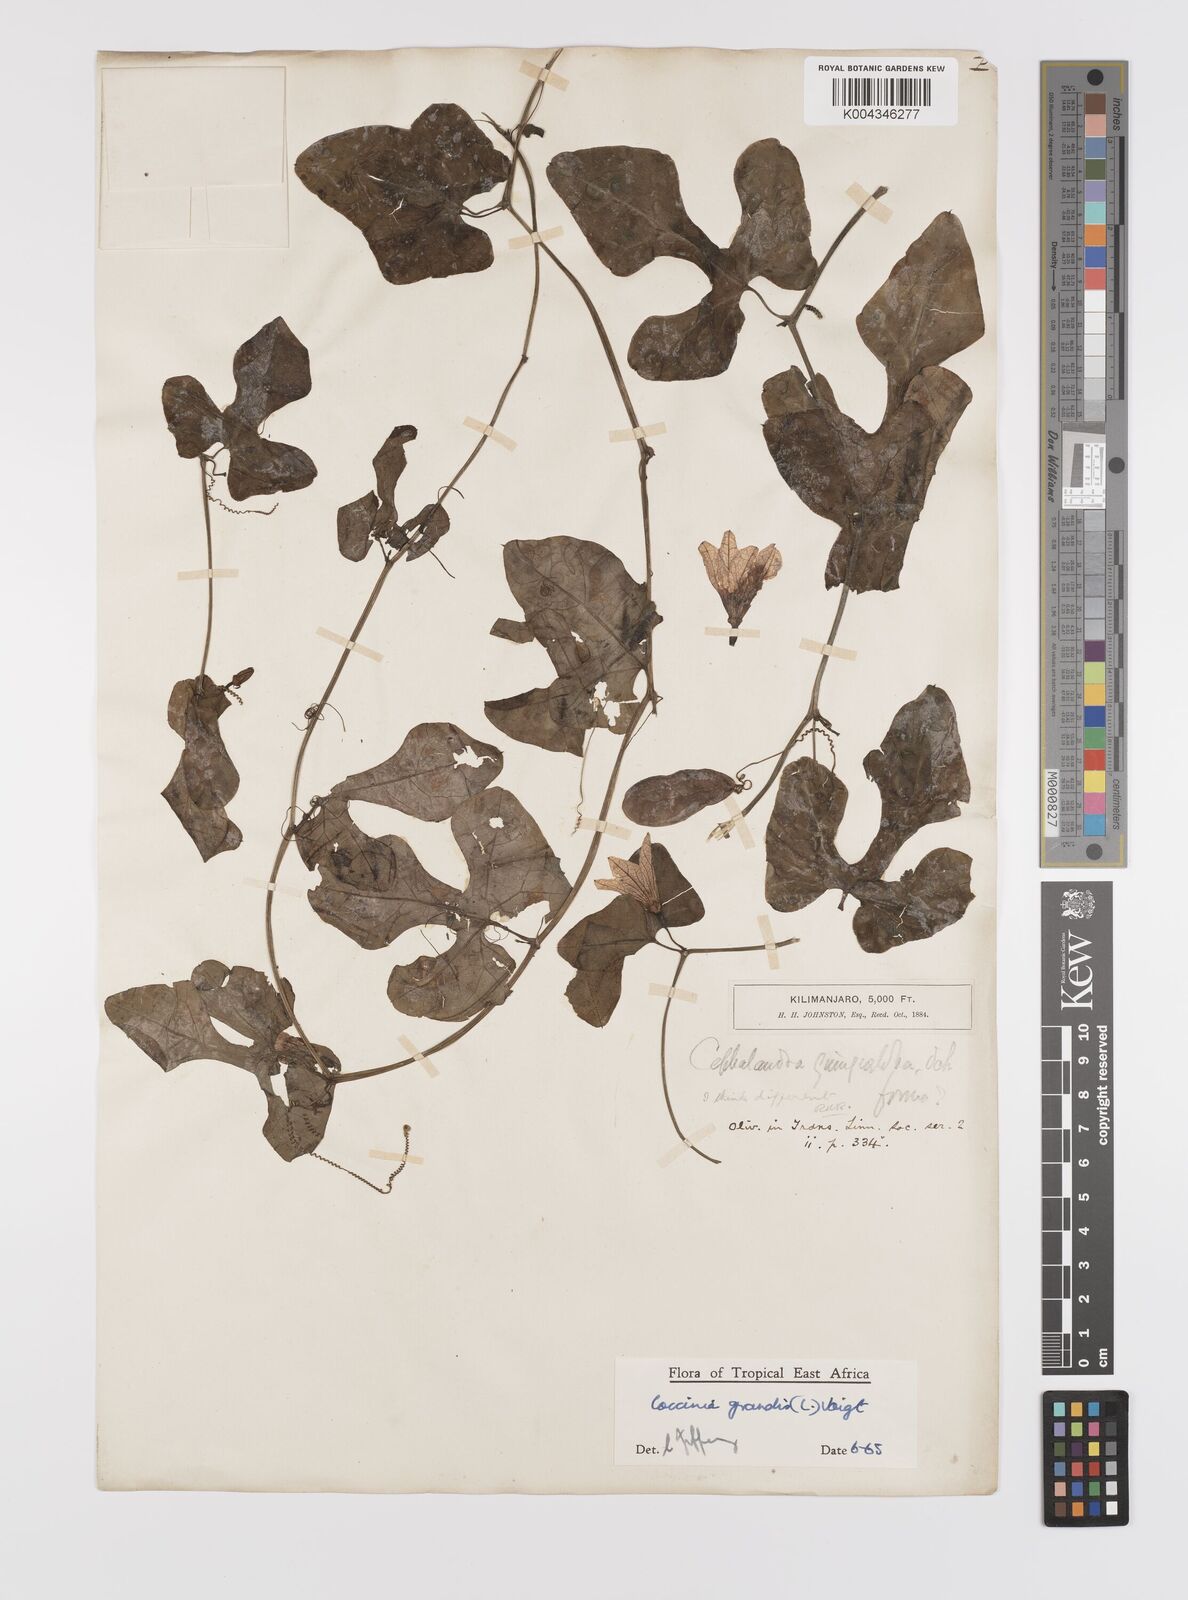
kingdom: Plantae
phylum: Tracheophyta
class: Magnoliopsida
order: Cucurbitales
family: Cucurbitaceae
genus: Coccinia
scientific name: Coccinia grandis
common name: Ivy gourd
